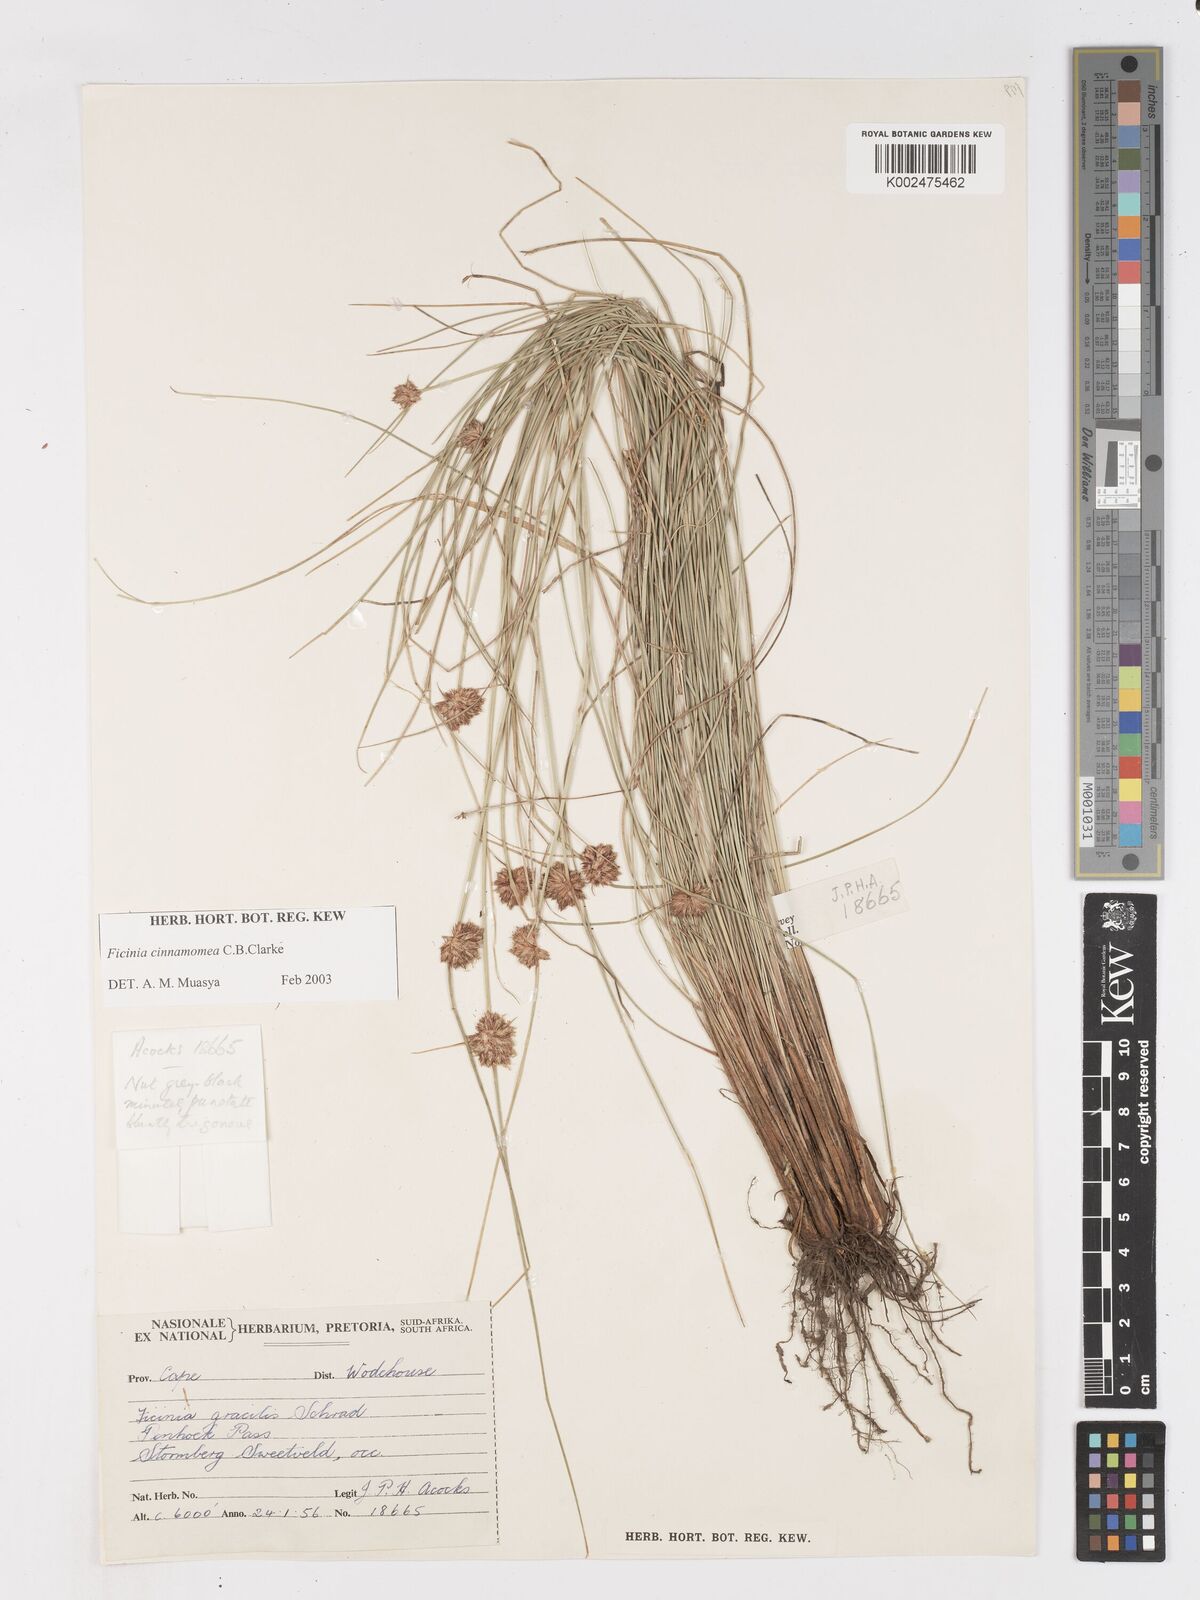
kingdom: Plantae
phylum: Tracheophyta
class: Liliopsida
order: Poales
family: Cyperaceae
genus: Ficinia
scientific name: Ficinia cinnamomea
